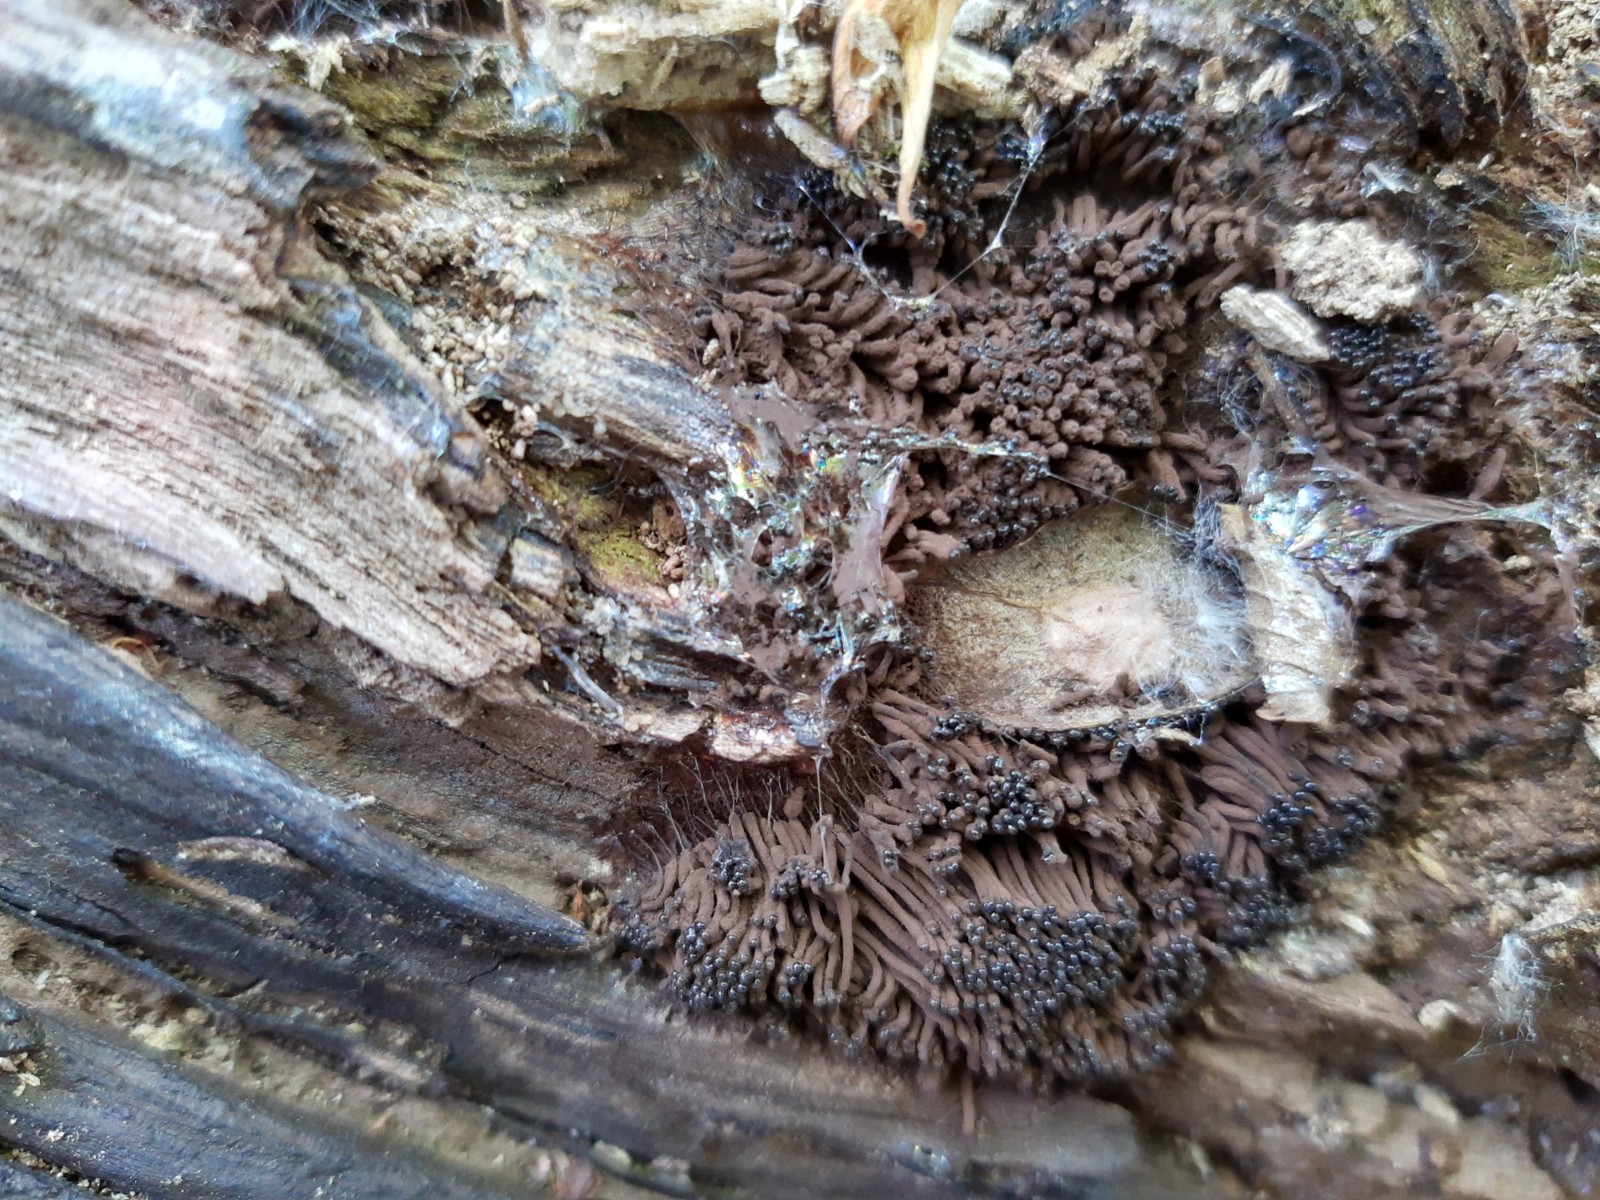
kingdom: Protozoa
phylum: Mycetozoa
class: Myxomycetes
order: Stemonitidales
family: Stemonitidaceae
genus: Stemonitis
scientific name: Stemonitis
